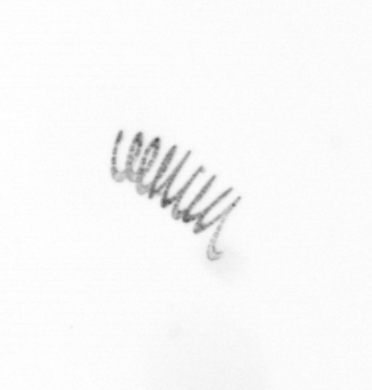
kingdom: Chromista
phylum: Ochrophyta
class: Bacillariophyceae
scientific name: Bacillariophyceae
